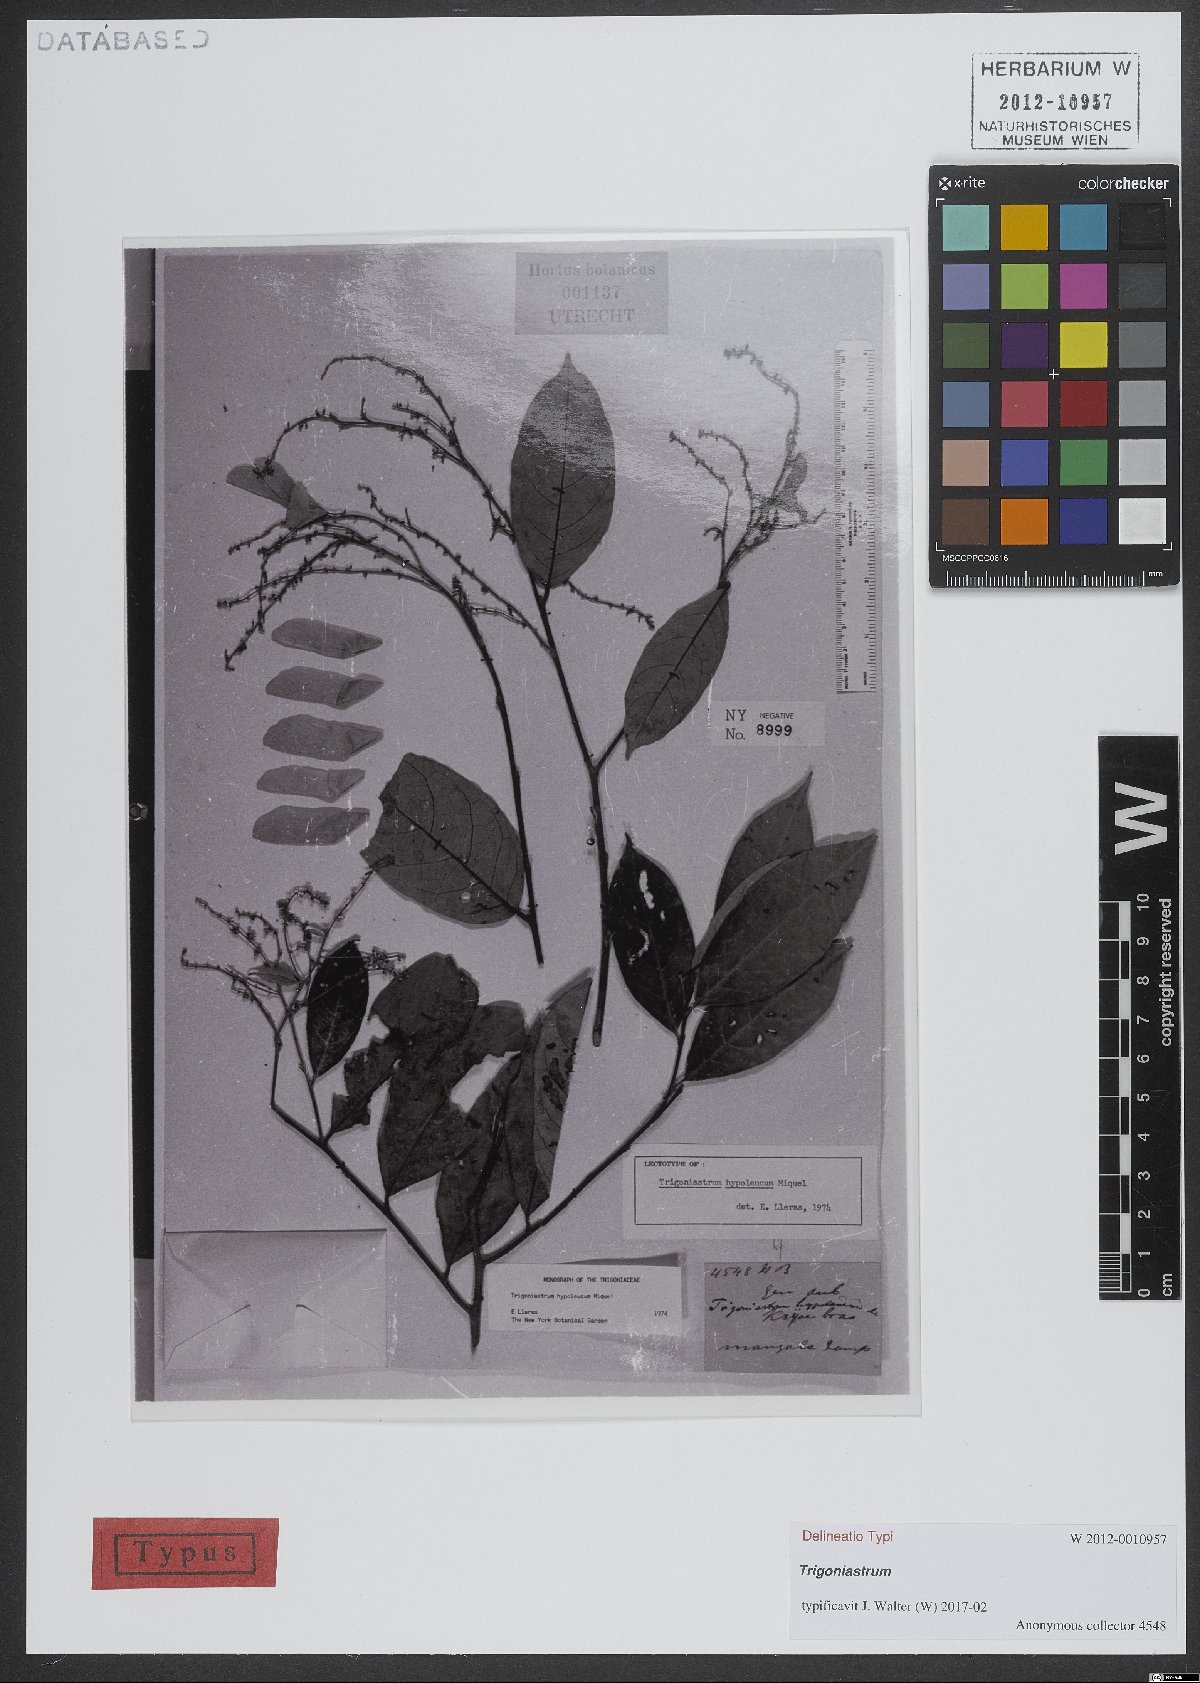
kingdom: Plantae
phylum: Tracheophyta
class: Magnoliopsida
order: Malpighiales
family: Trigoniaceae
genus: Trigoniastrum
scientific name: Trigoniastrum hypoleucum
